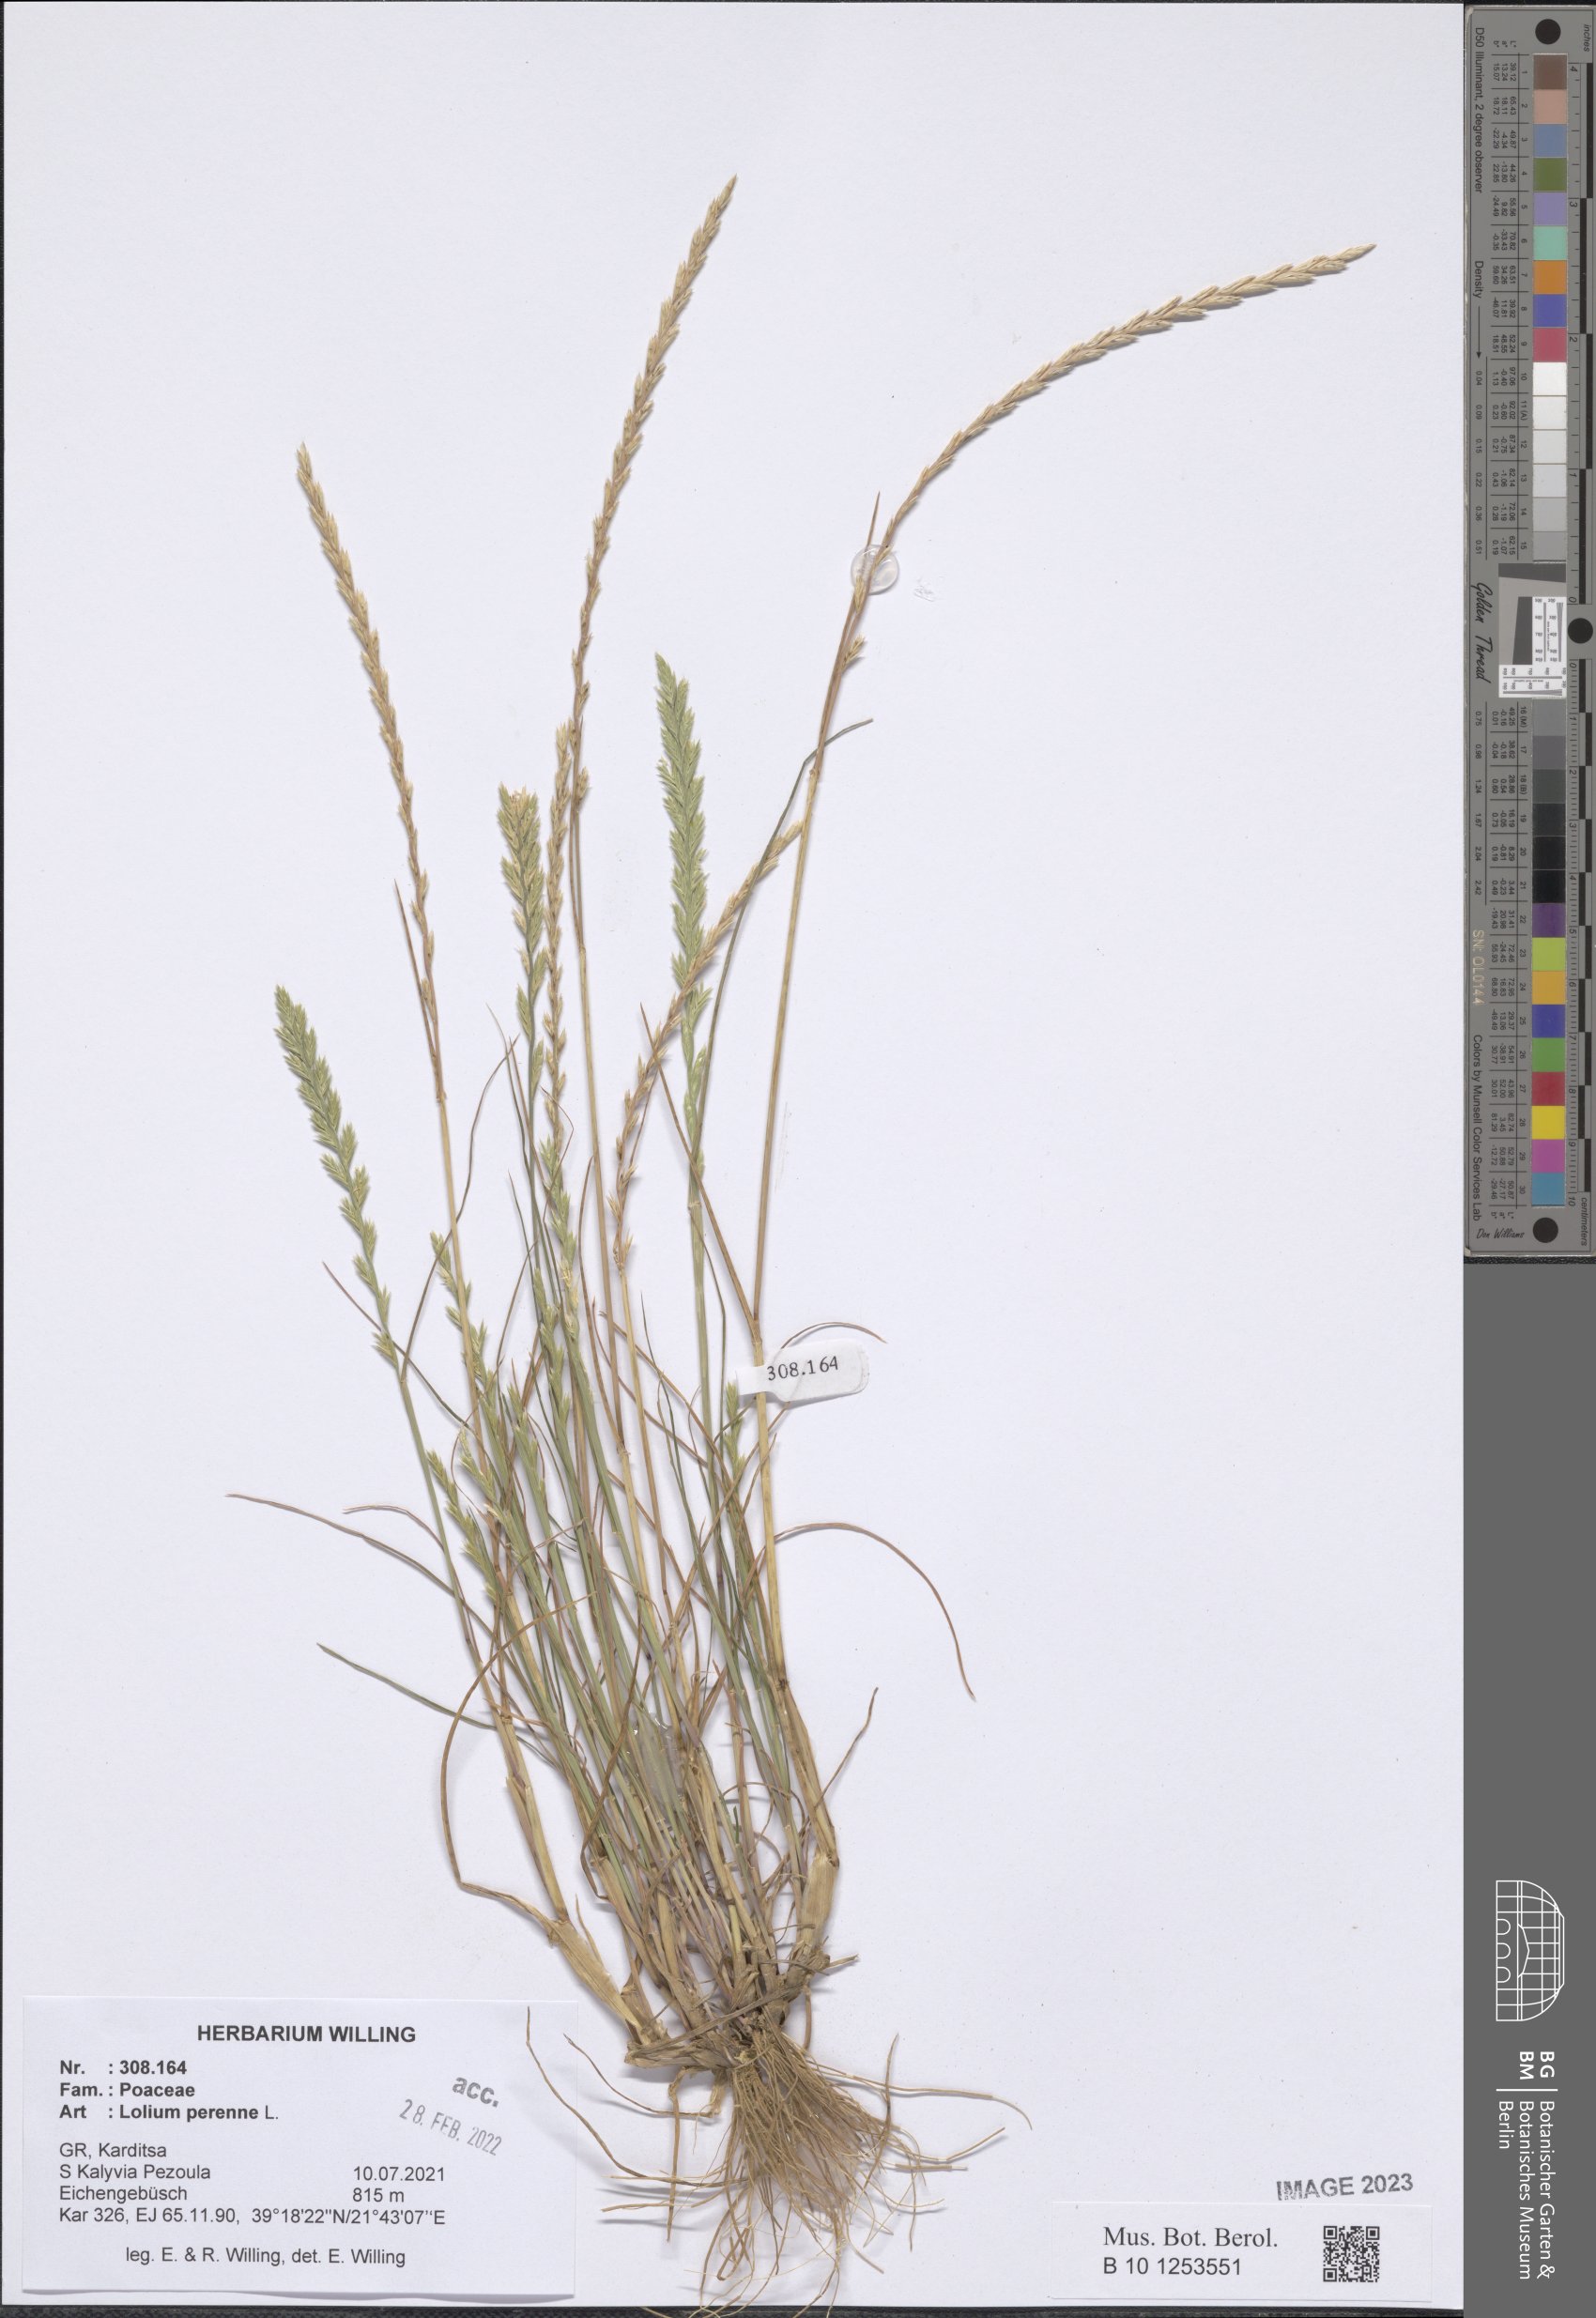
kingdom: Plantae
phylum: Tracheophyta
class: Liliopsida
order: Poales
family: Poaceae
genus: Lolium
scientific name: Lolium perenne
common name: Perennial ryegrass
